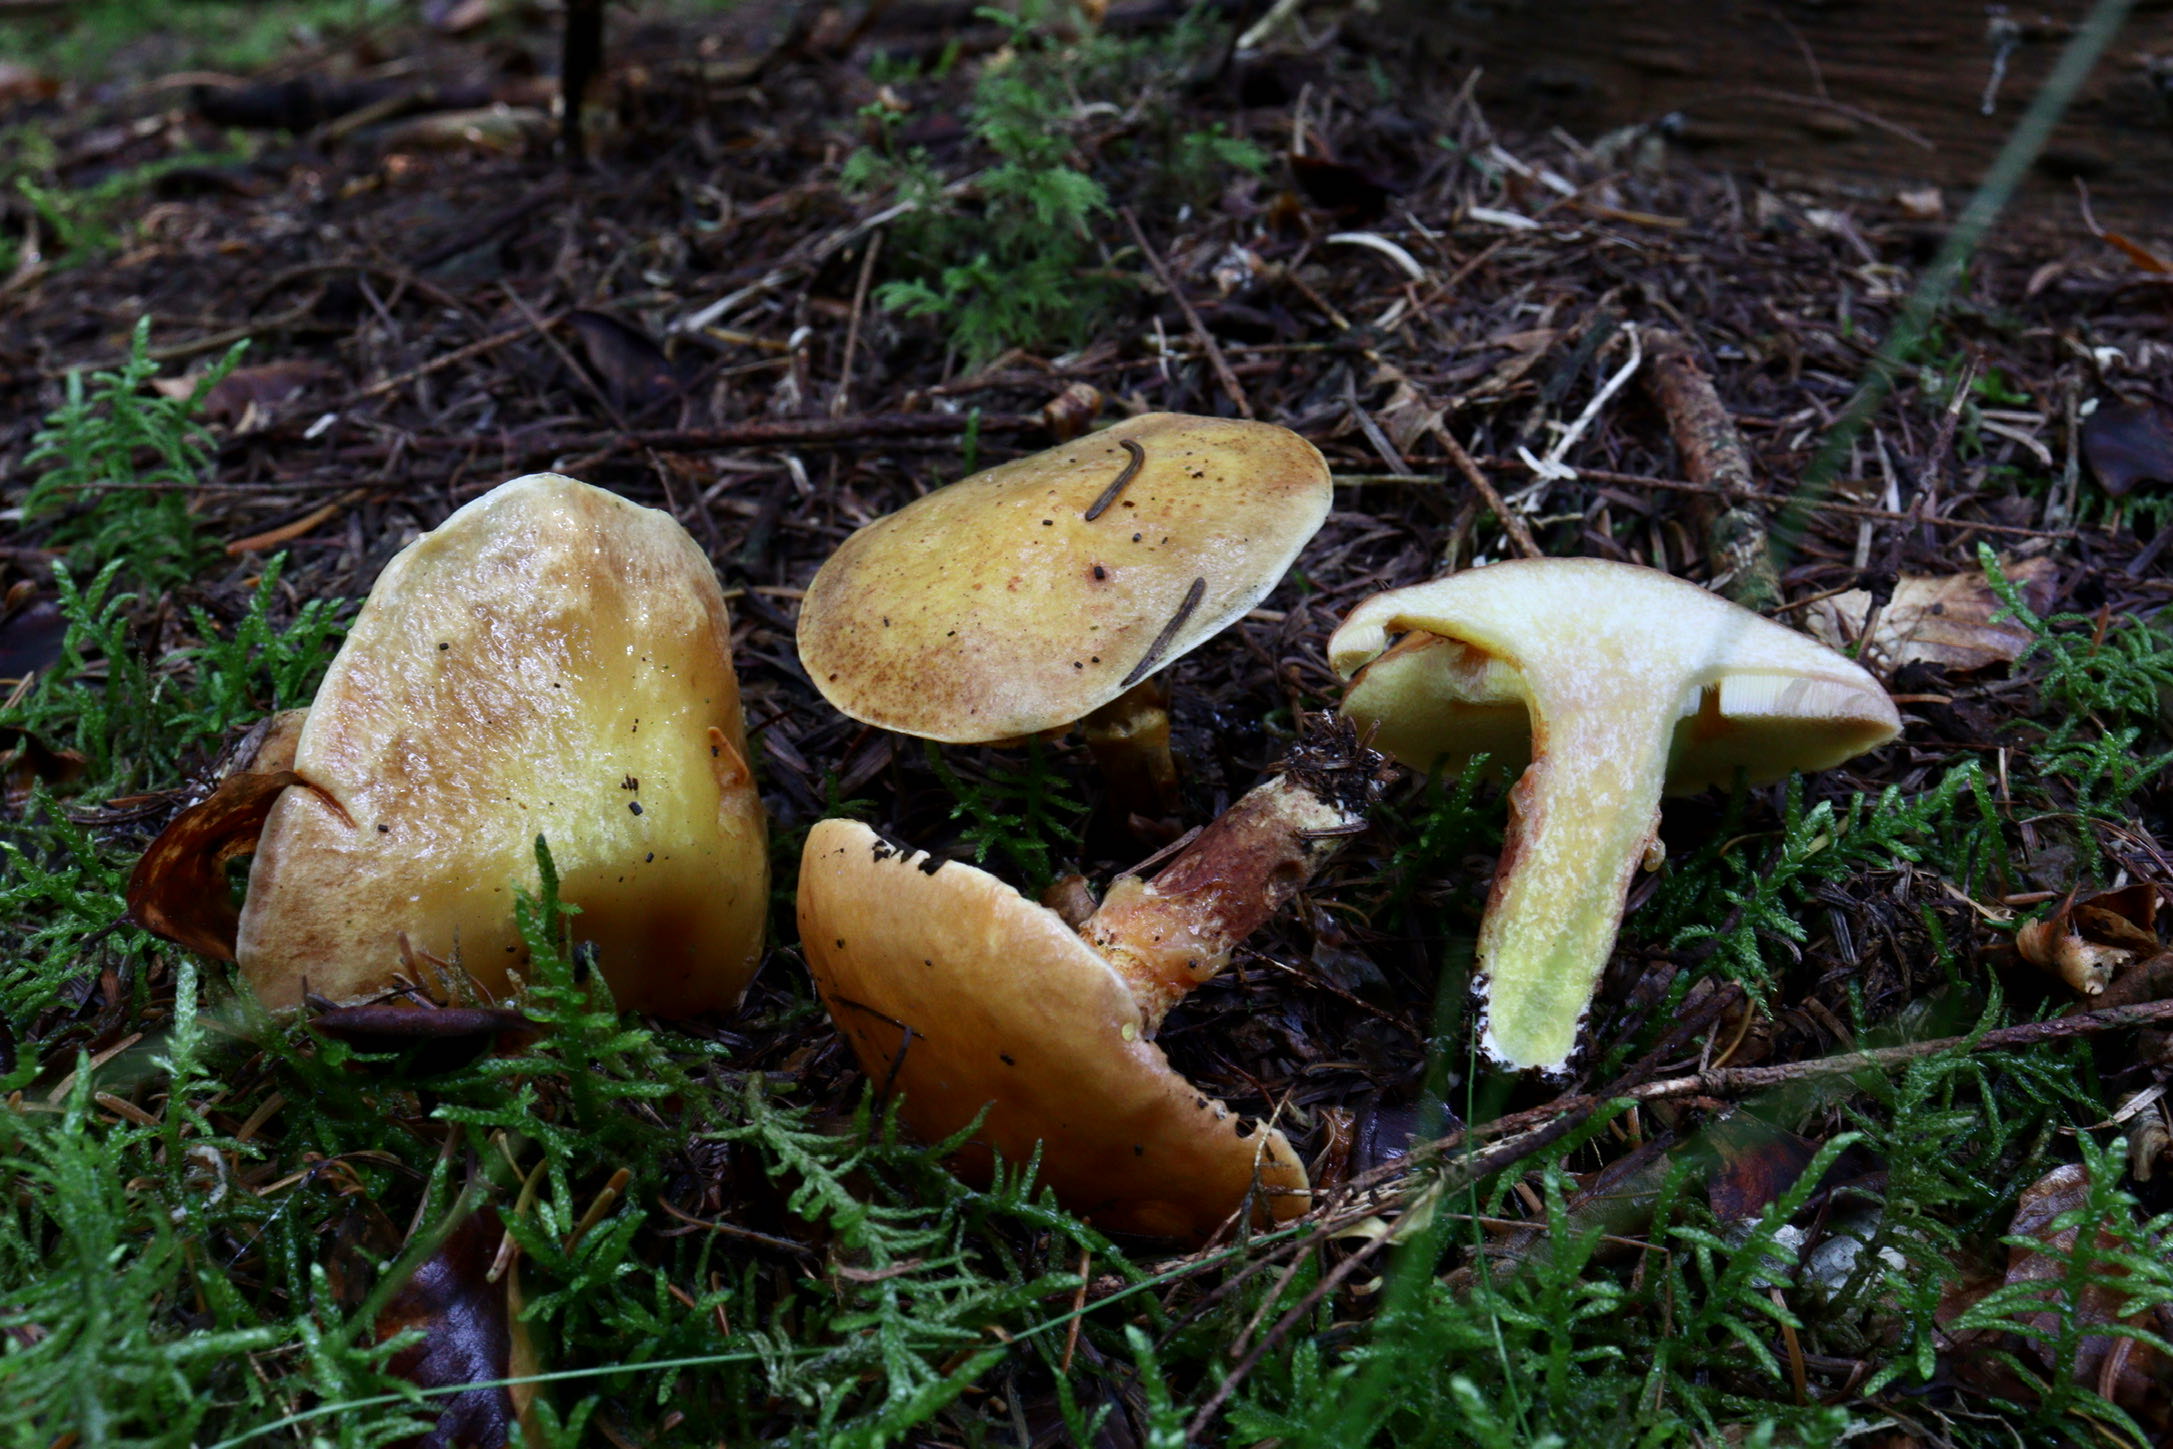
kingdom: Fungi
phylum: Basidiomycota
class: Agaricomycetes
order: Boletales
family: Suillaceae
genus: Suillus
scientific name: Suillus grevillei
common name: lærke-slimrørhat
